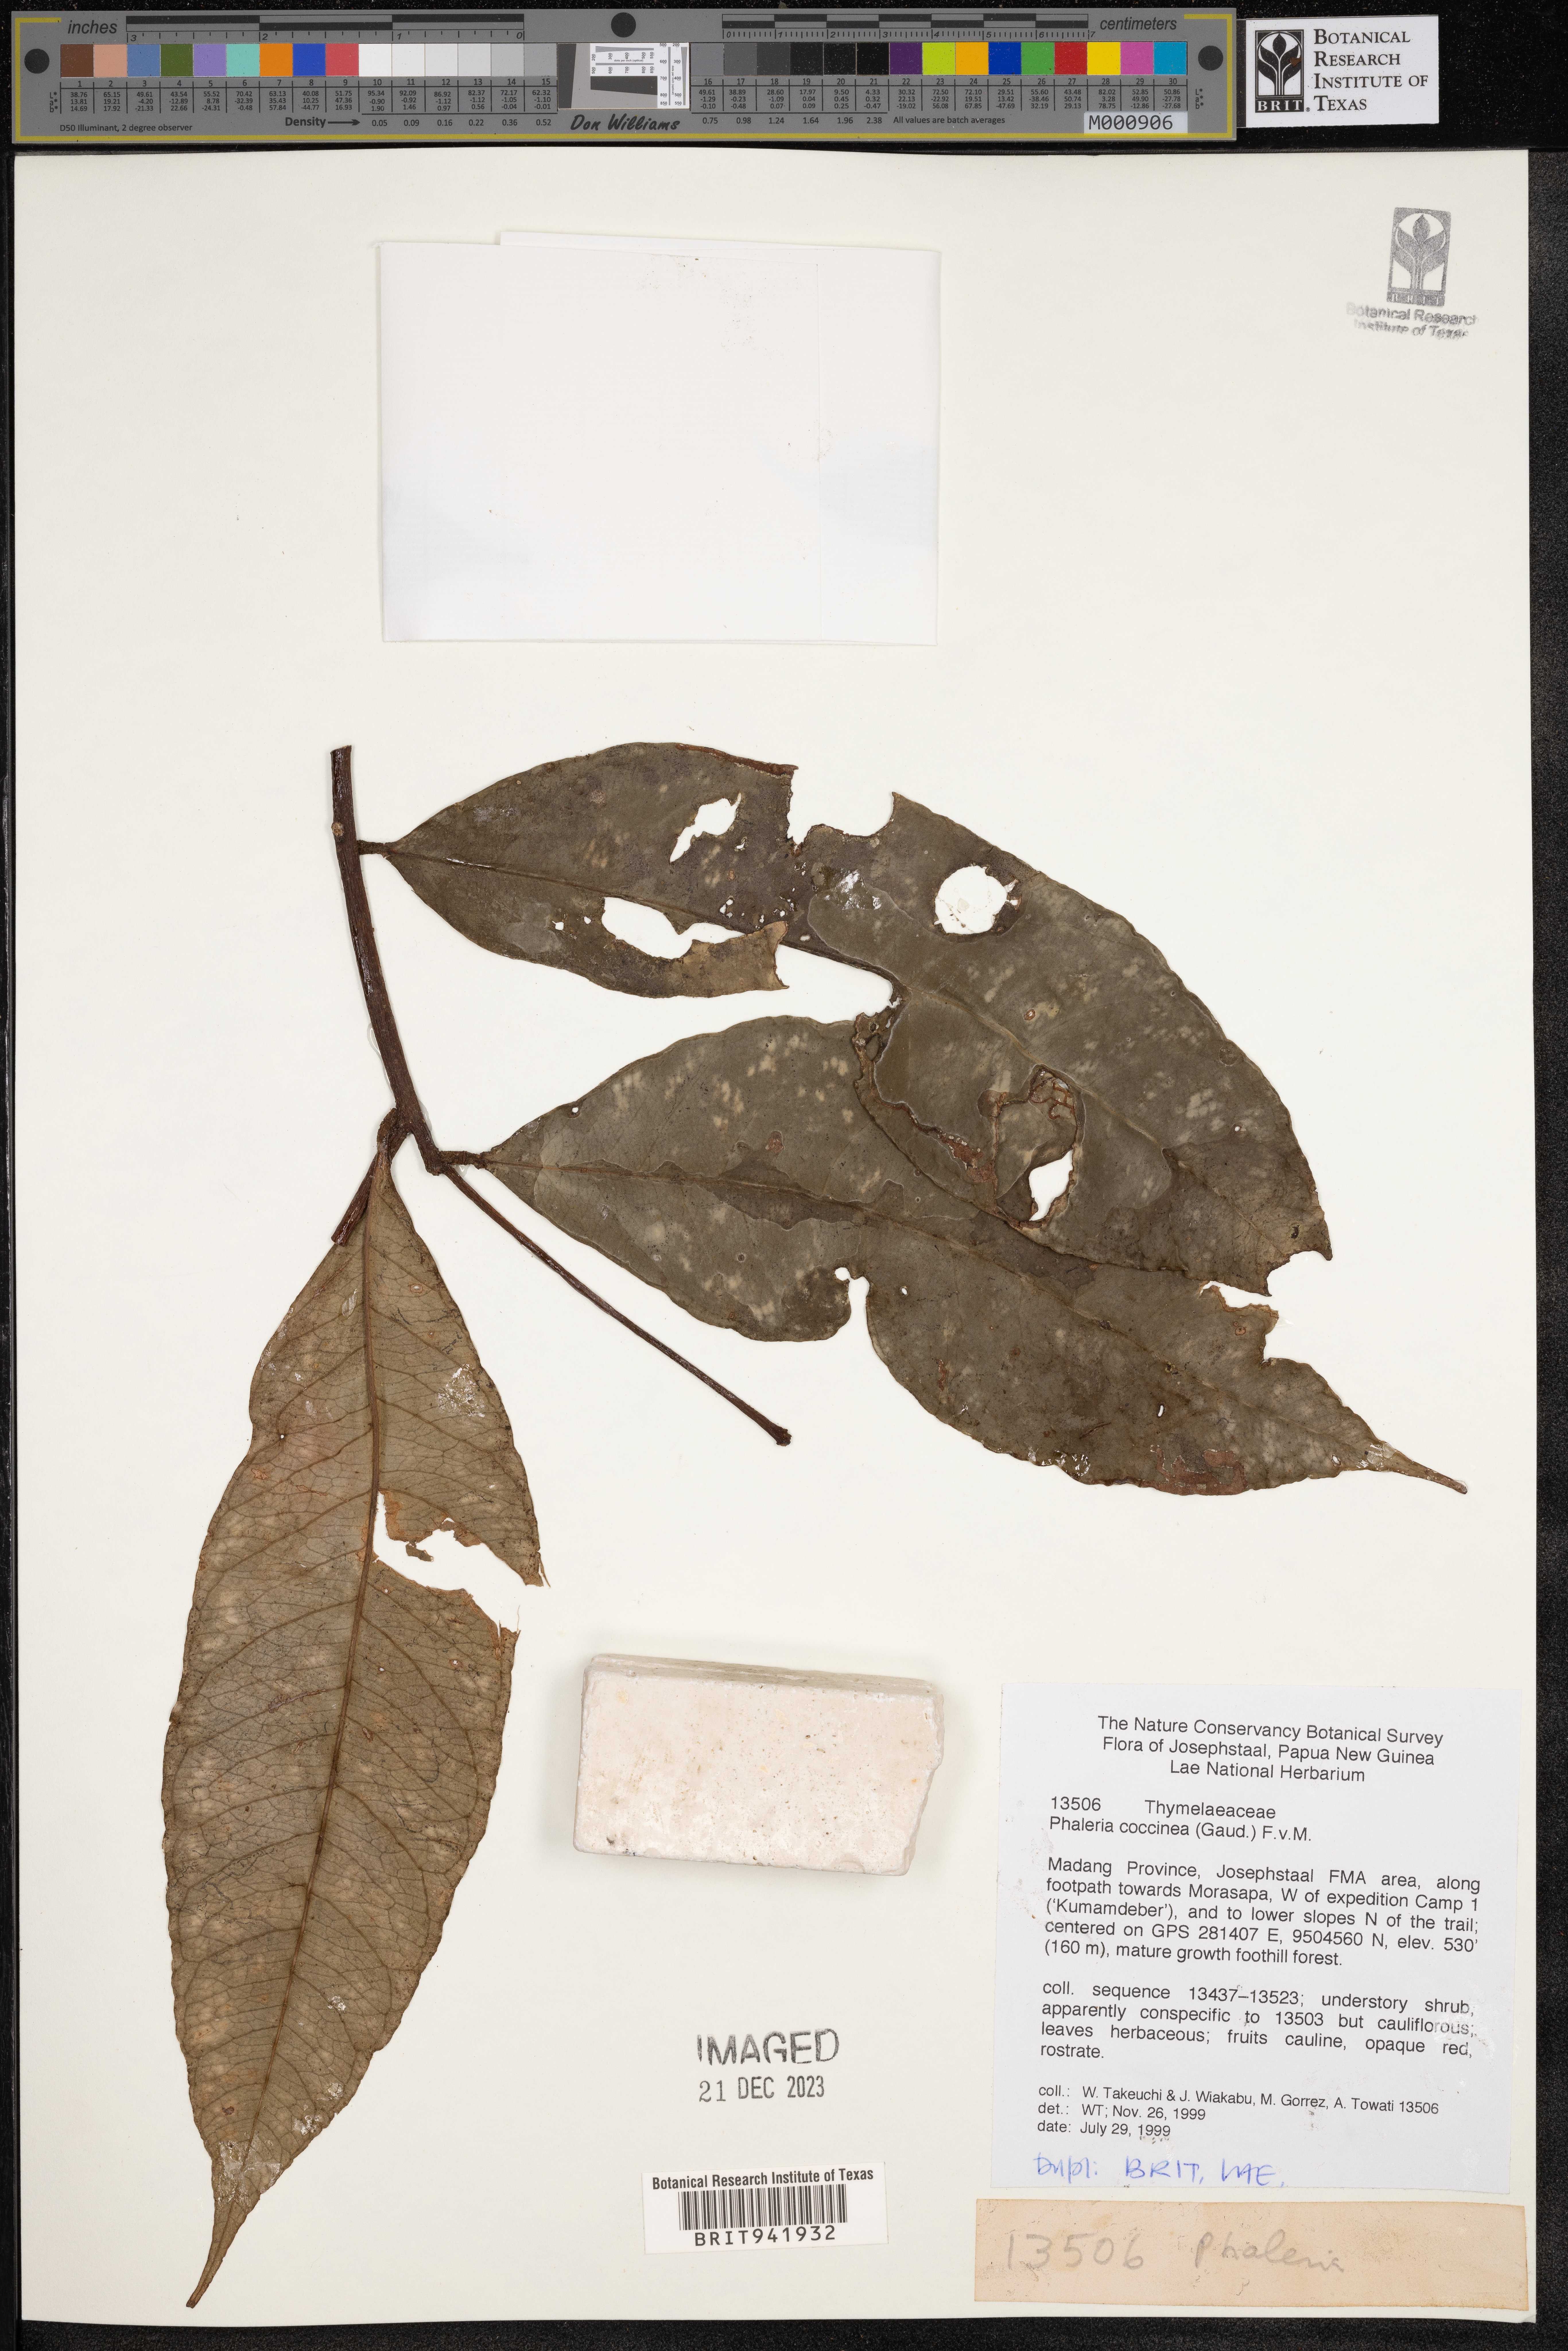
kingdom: Plantae
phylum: Tracheophyta
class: Magnoliopsida
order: Malvales
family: Thymelaeaceae
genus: Phaleria
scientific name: Phaleria
